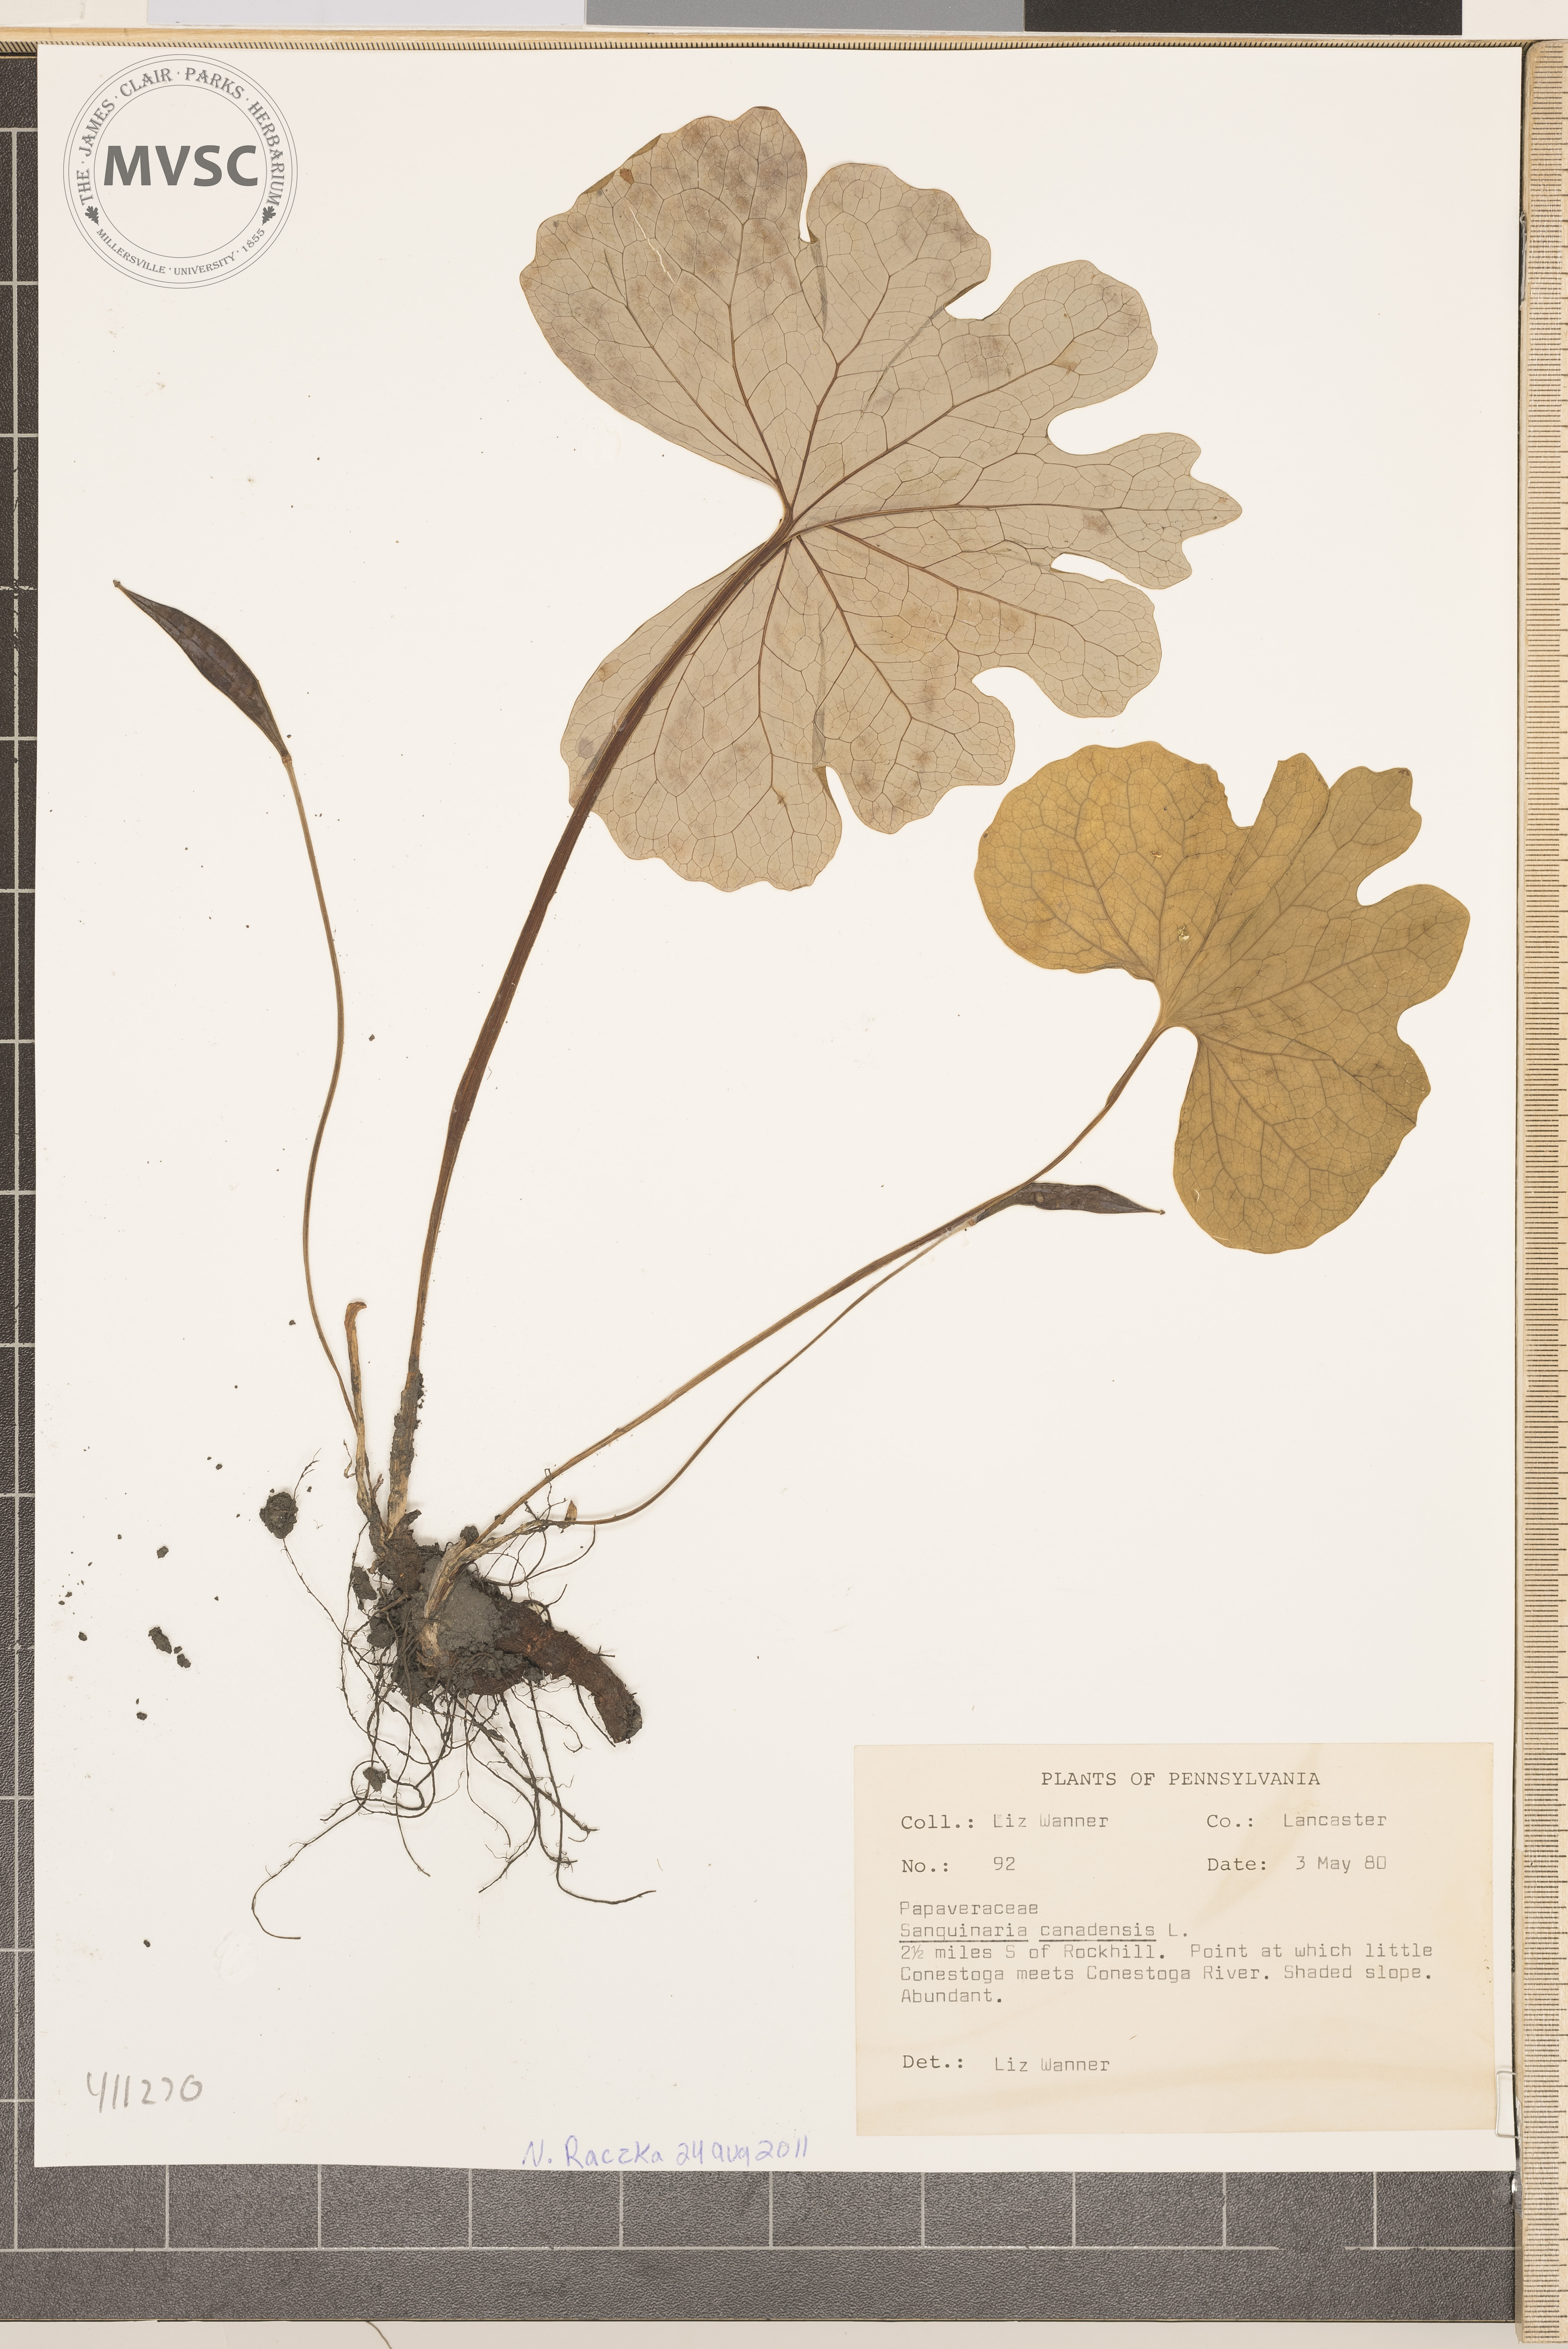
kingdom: Plantae
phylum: Tracheophyta
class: Magnoliopsida
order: Ranunculales
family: Papaveraceae
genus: Sanguinaria
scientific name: Sanguinaria canadensis
